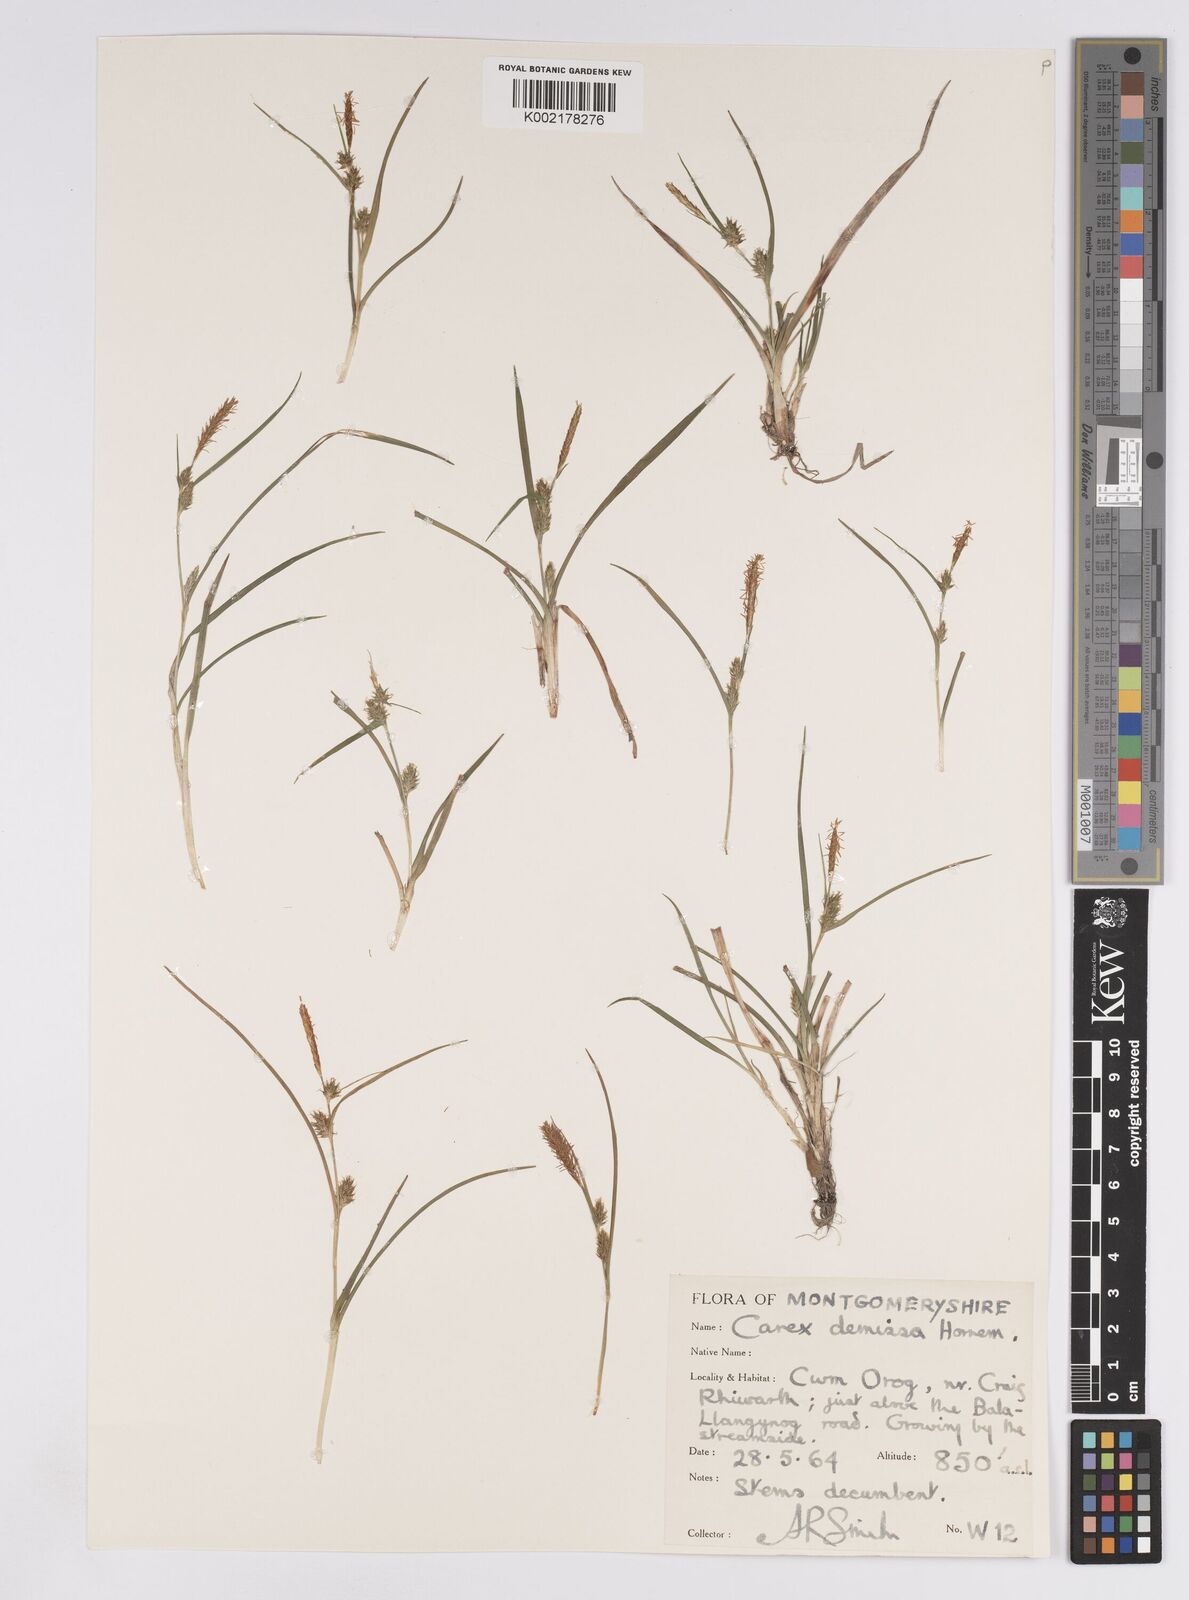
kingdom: Plantae
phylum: Tracheophyta
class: Liliopsida
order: Poales
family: Cyperaceae
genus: Carex
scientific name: Carex demissa
